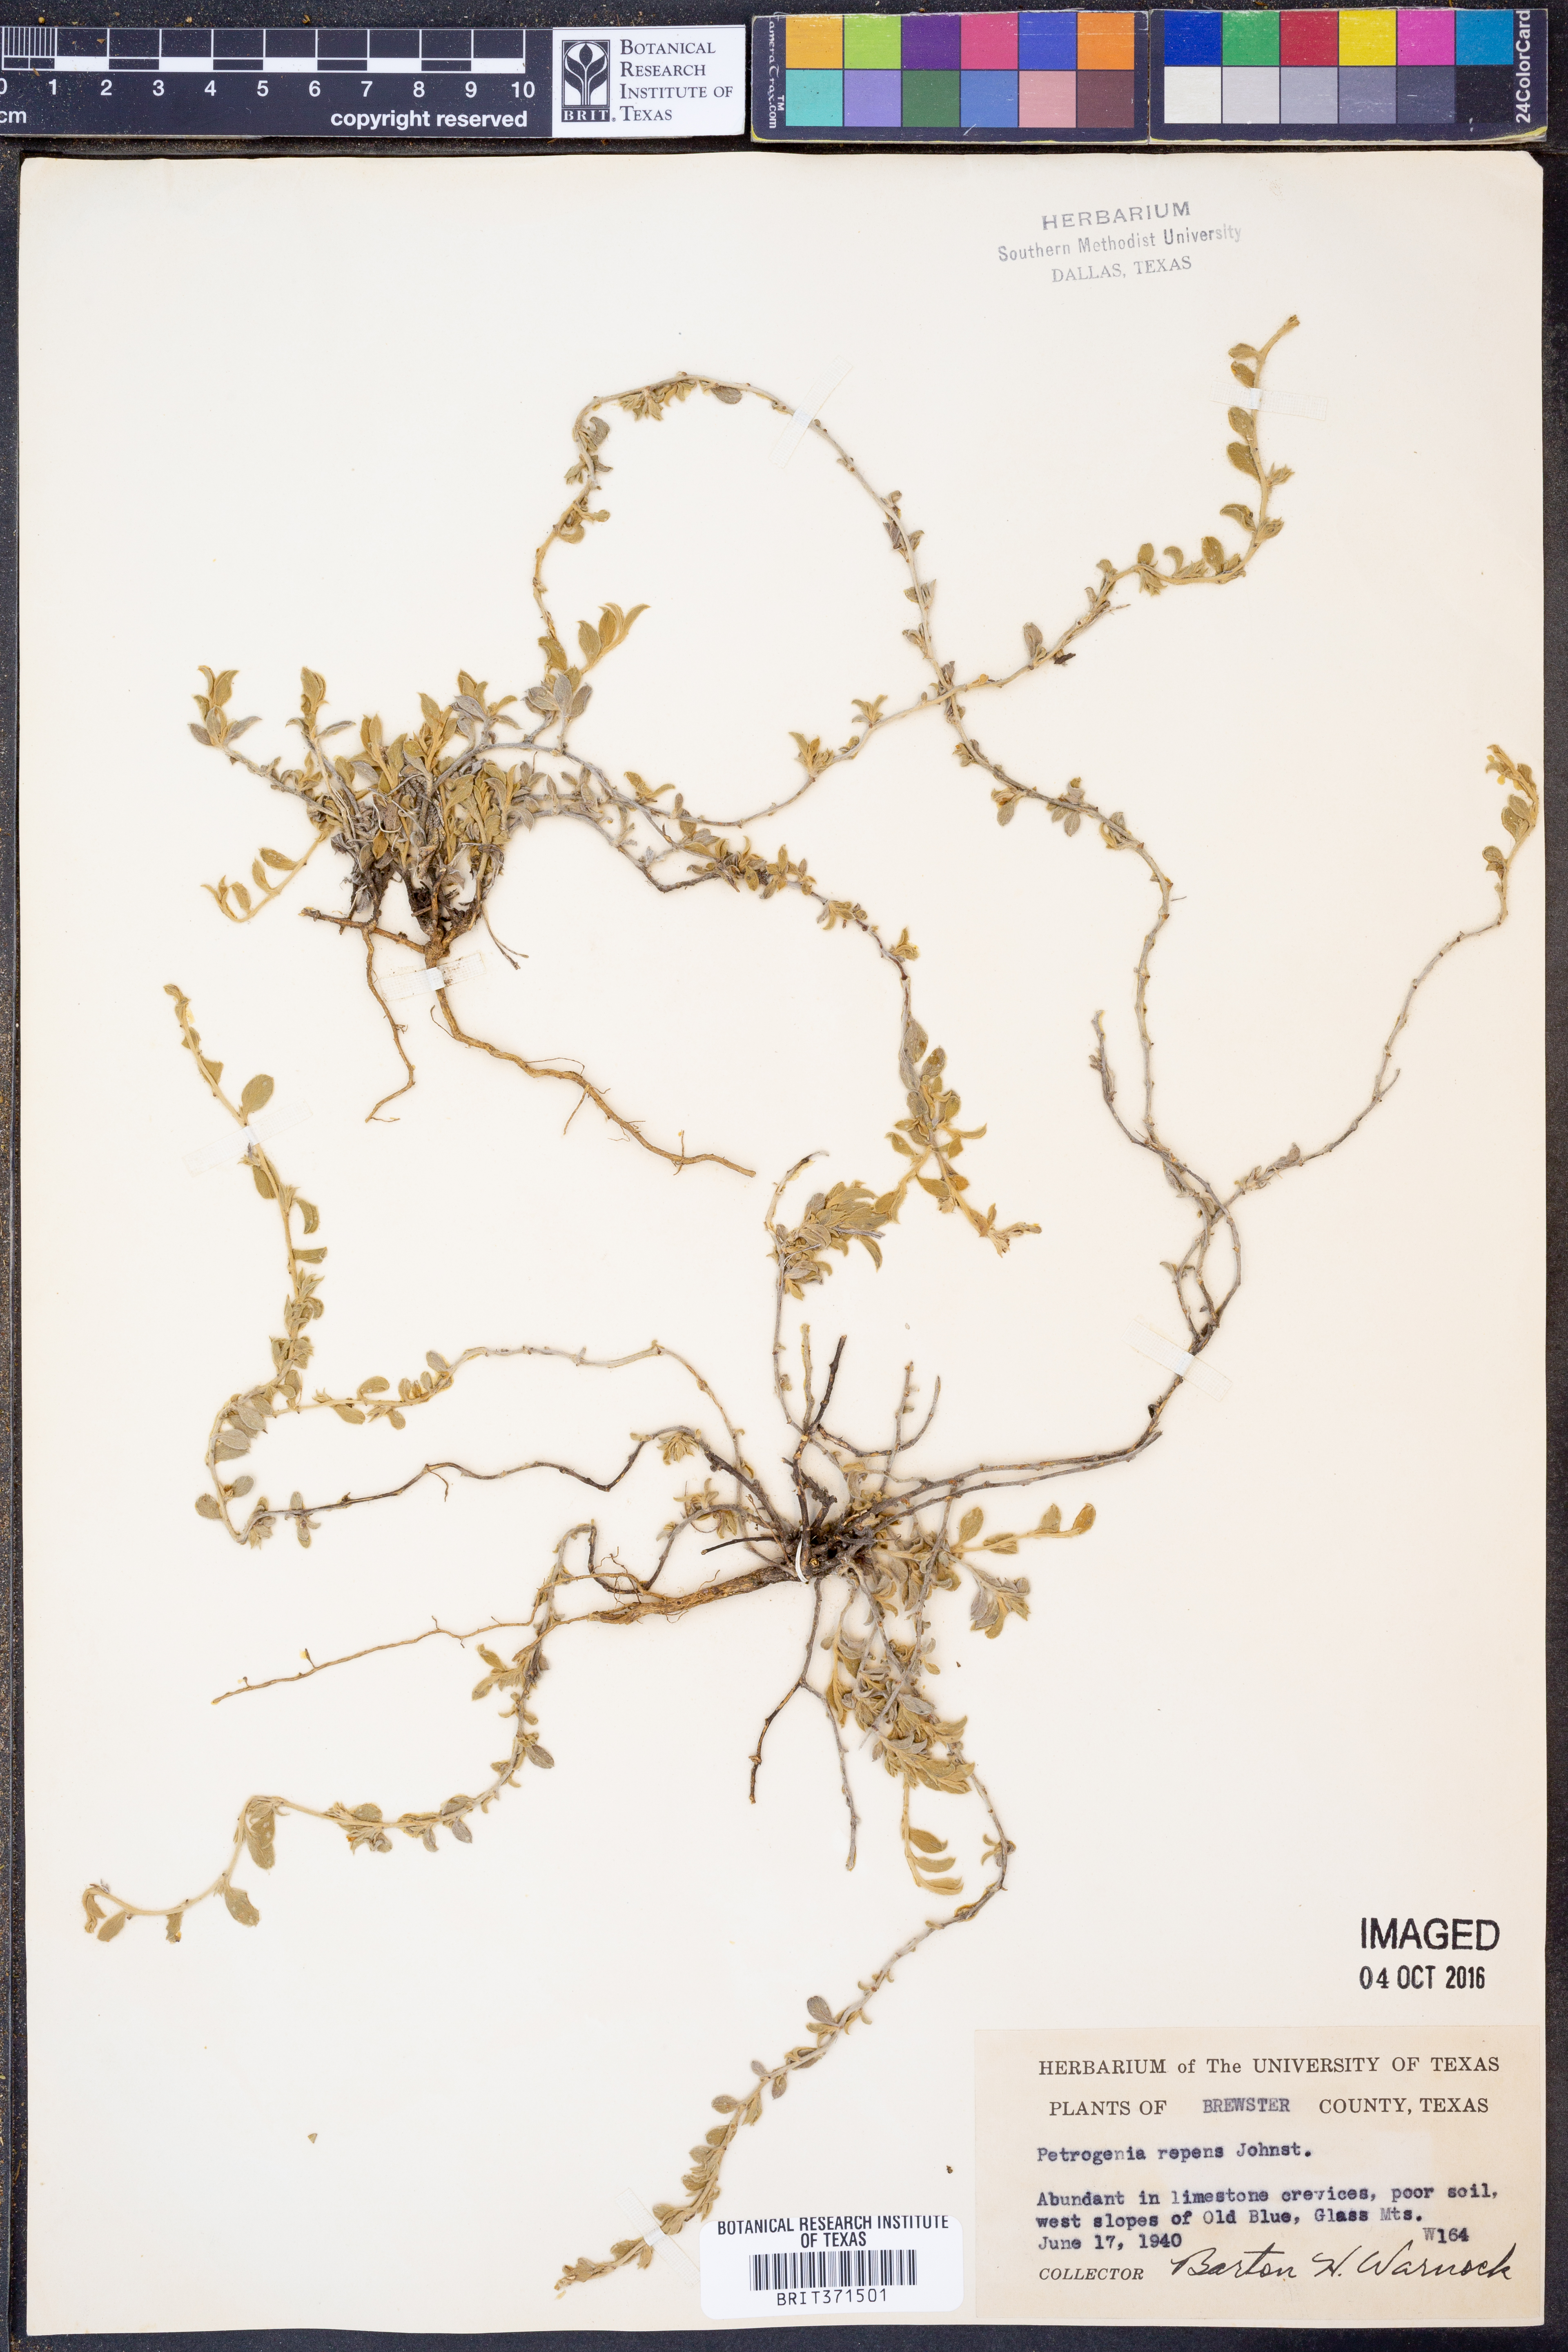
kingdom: Plantae
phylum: Tracheophyta
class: Magnoliopsida
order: Solanales
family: Convolvulaceae
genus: Bonamia
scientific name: Bonamia repens
